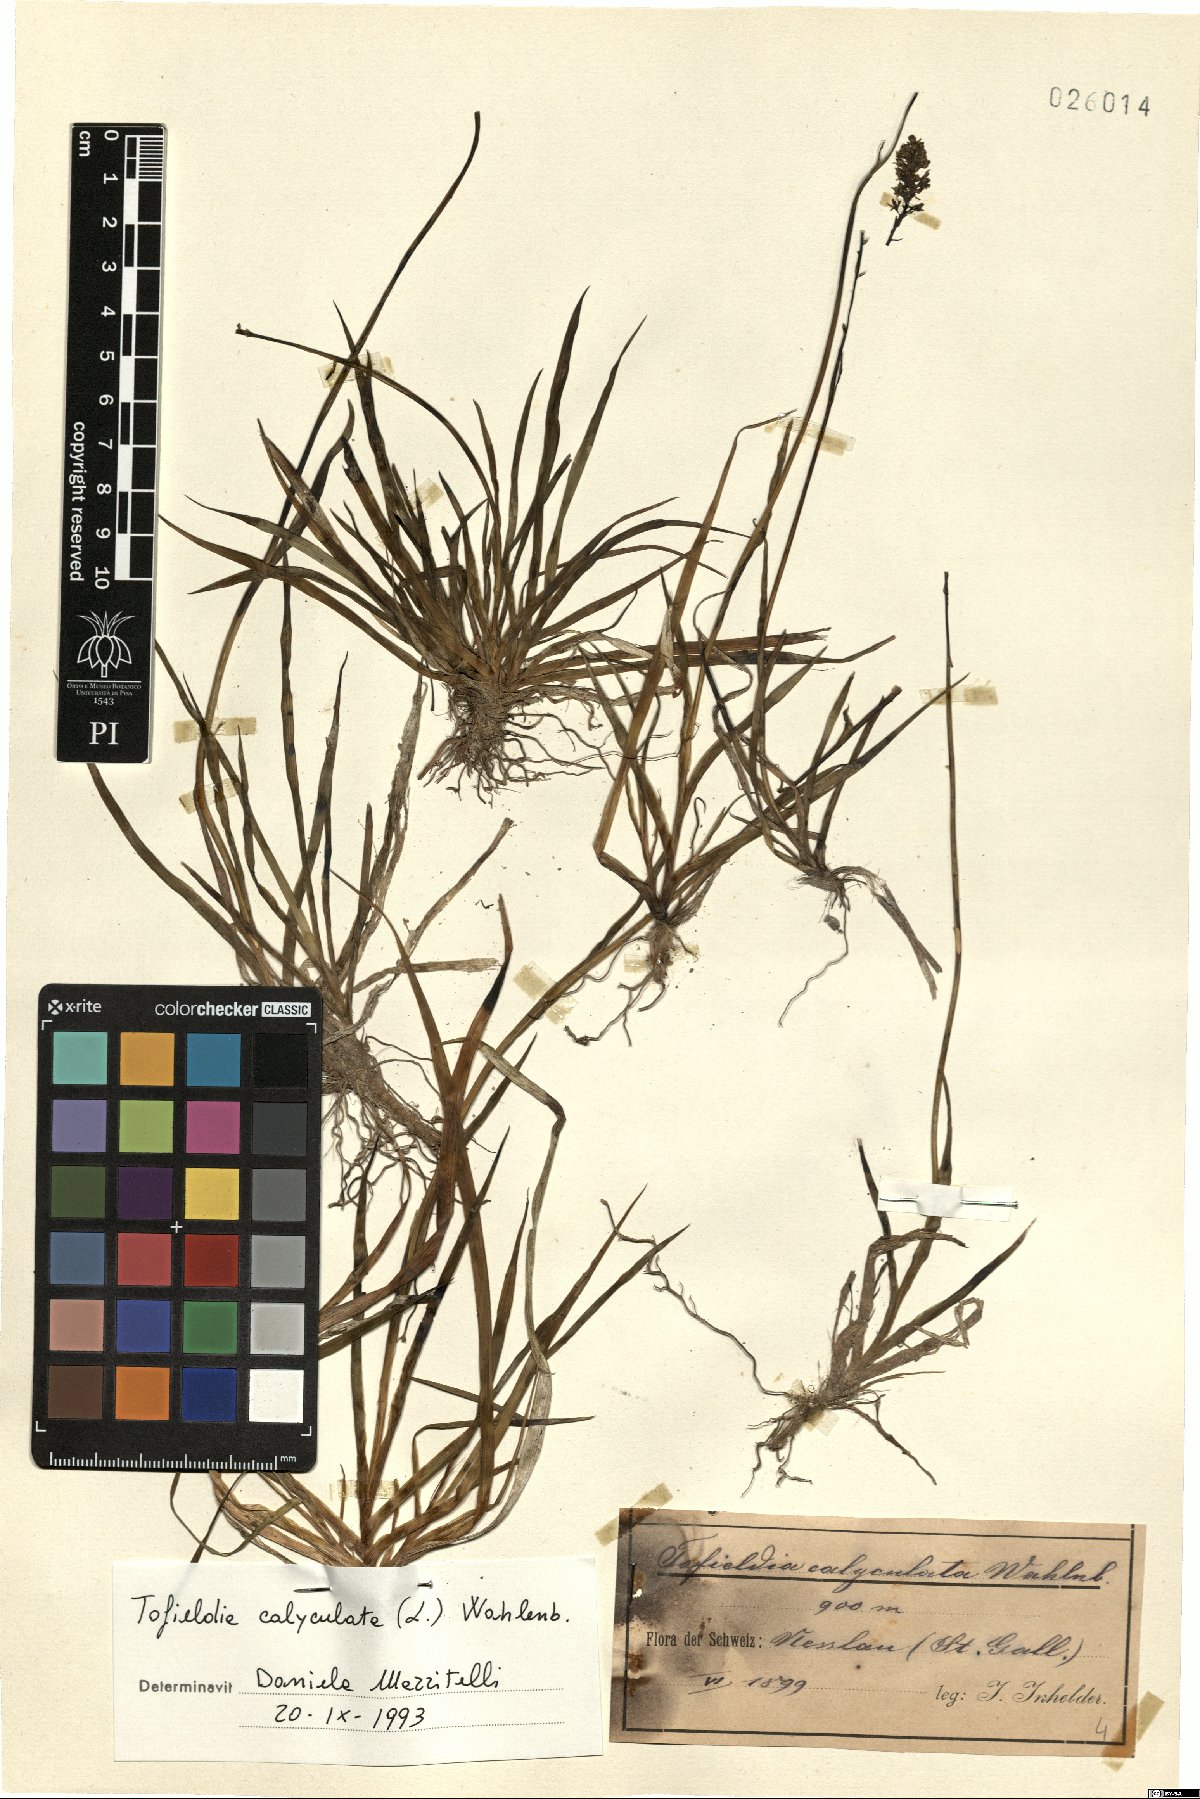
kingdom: Plantae
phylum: Tracheophyta
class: Liliopsida
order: Alismatales
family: Tofieldiaceae
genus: Tofieldia
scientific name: Tofieldia calyculata
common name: German-asphodel
